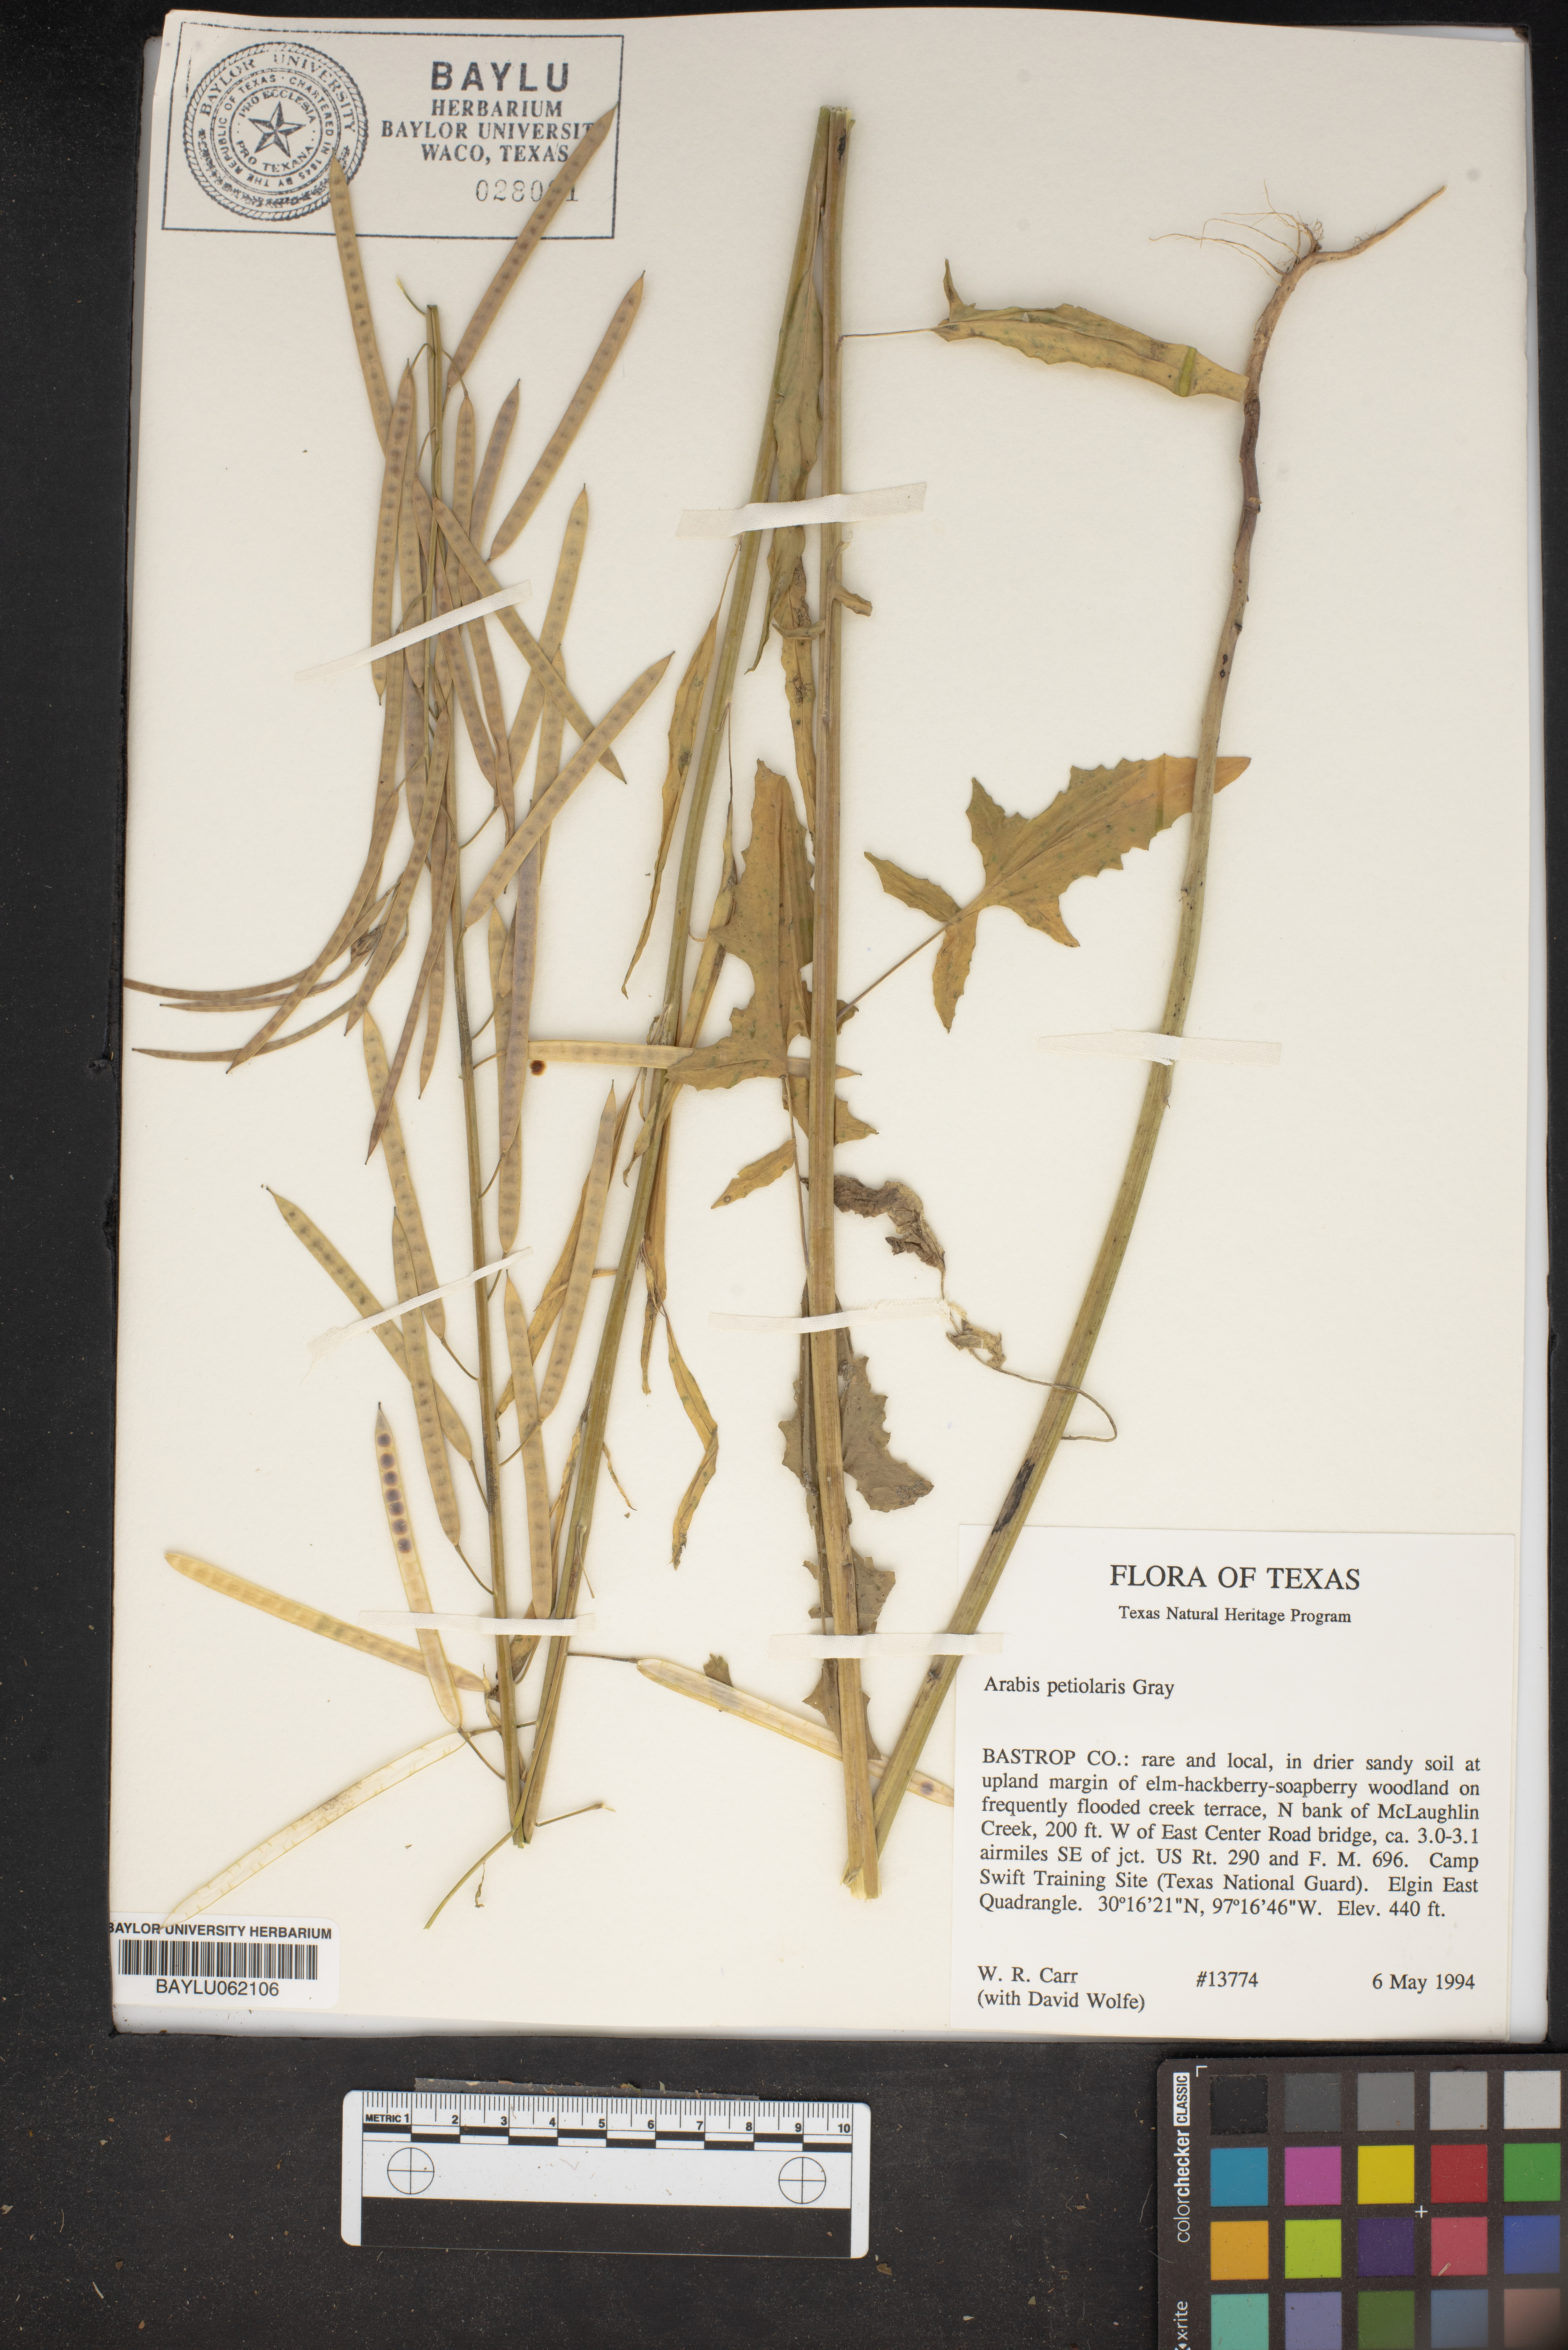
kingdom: Plantae
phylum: Tracheophyta
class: Magnoliopsida
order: Brassicales
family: Brassicaceae
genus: Streptanthus
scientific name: Streptanthus petiolaris
